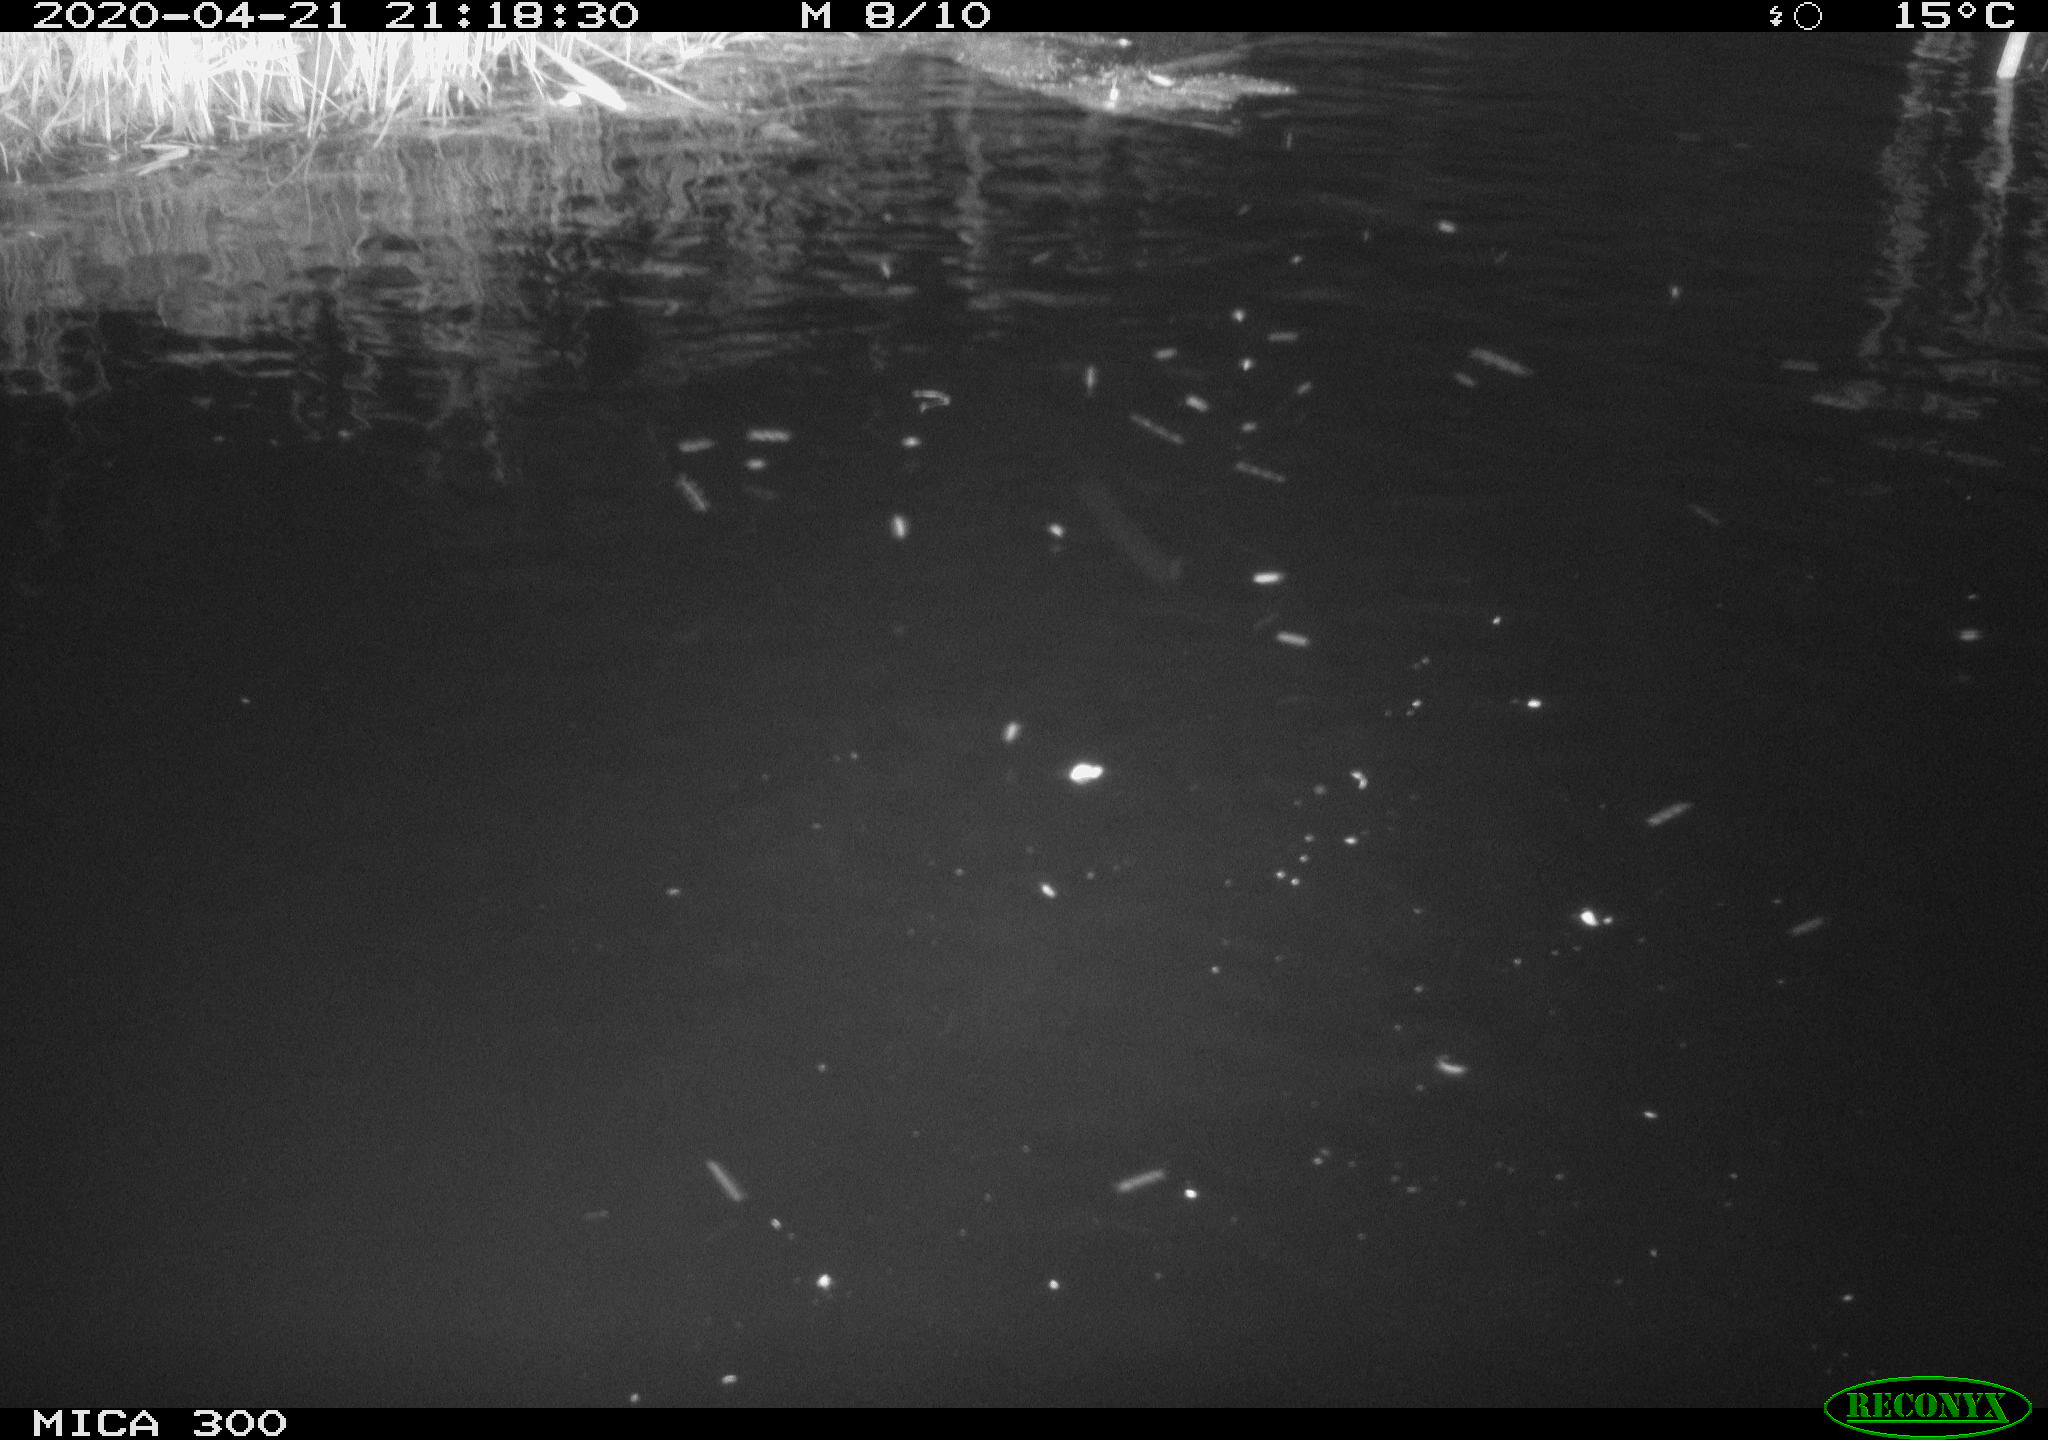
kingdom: Animalia
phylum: Chordata
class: Aves
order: Anseriformes
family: Anatidae
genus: Anas
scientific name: Anas platyrhynchos
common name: Mallard
